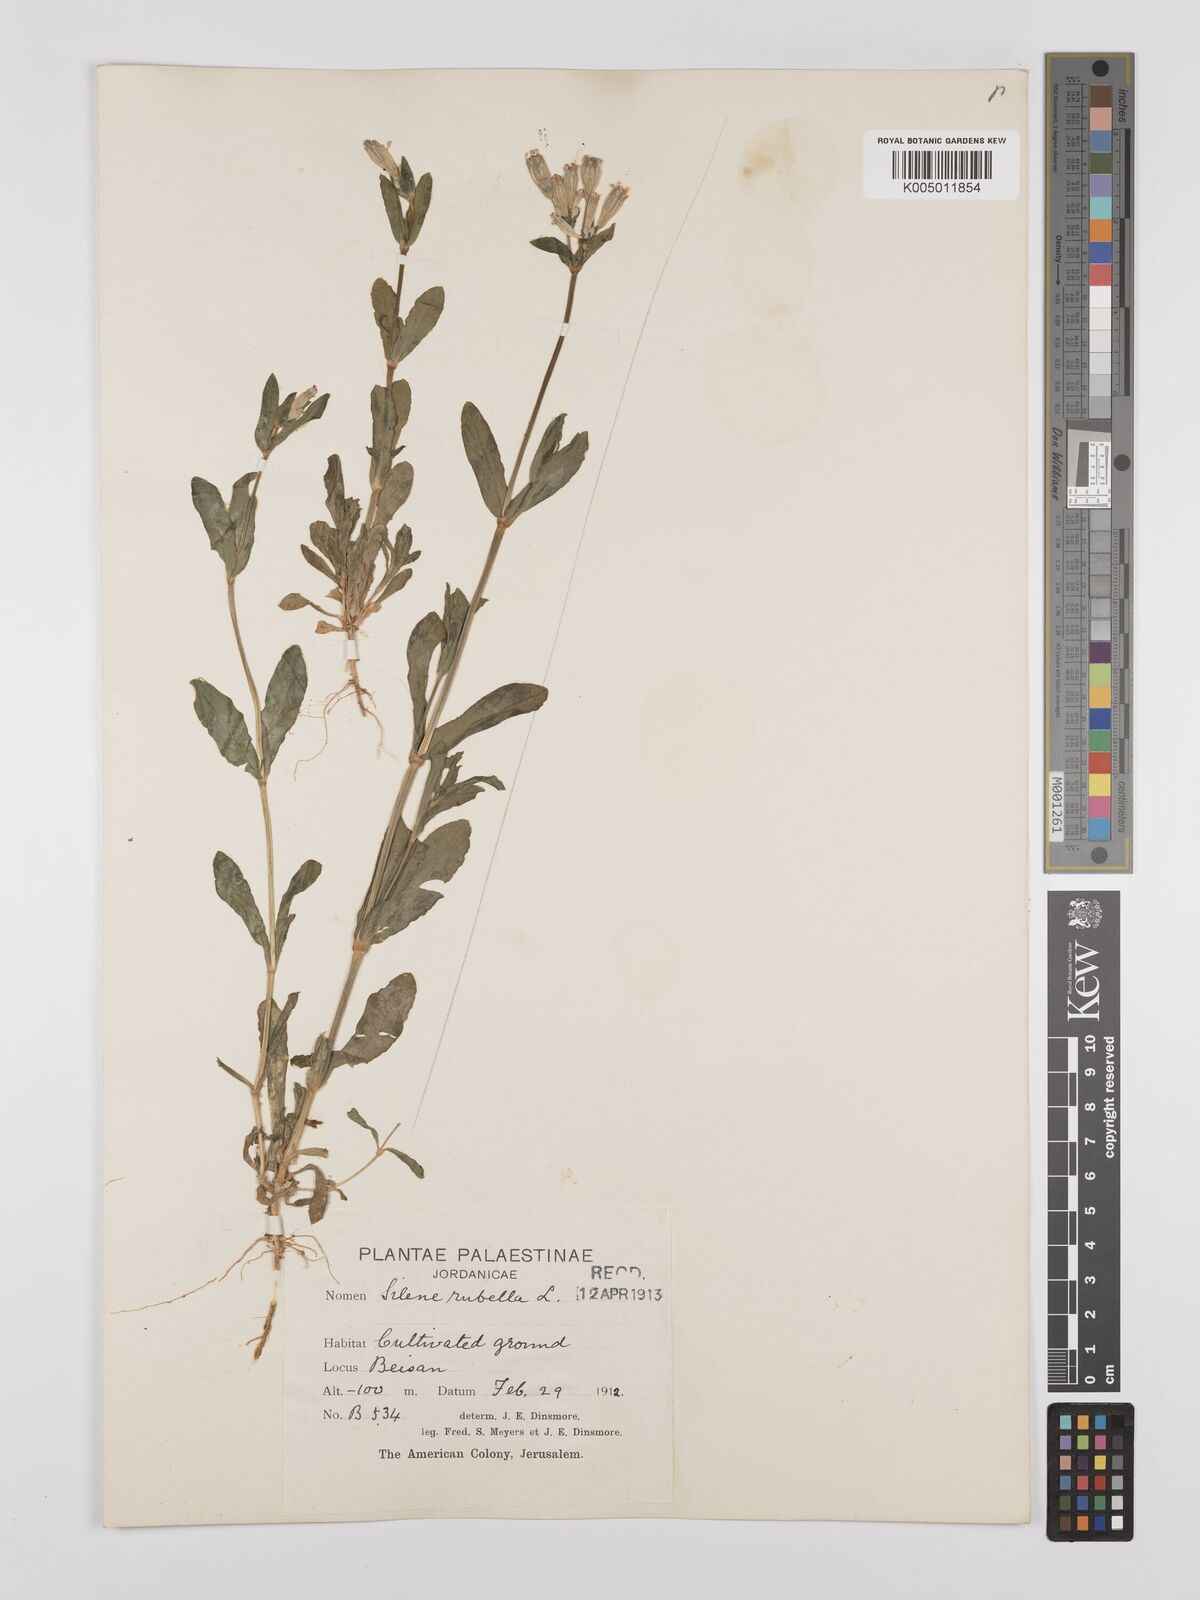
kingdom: Plantae
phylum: Tracheophyta
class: Magnoliopsida
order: Caryophyllales
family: Caryophyllaceae
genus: Silene
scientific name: Silene rubella
